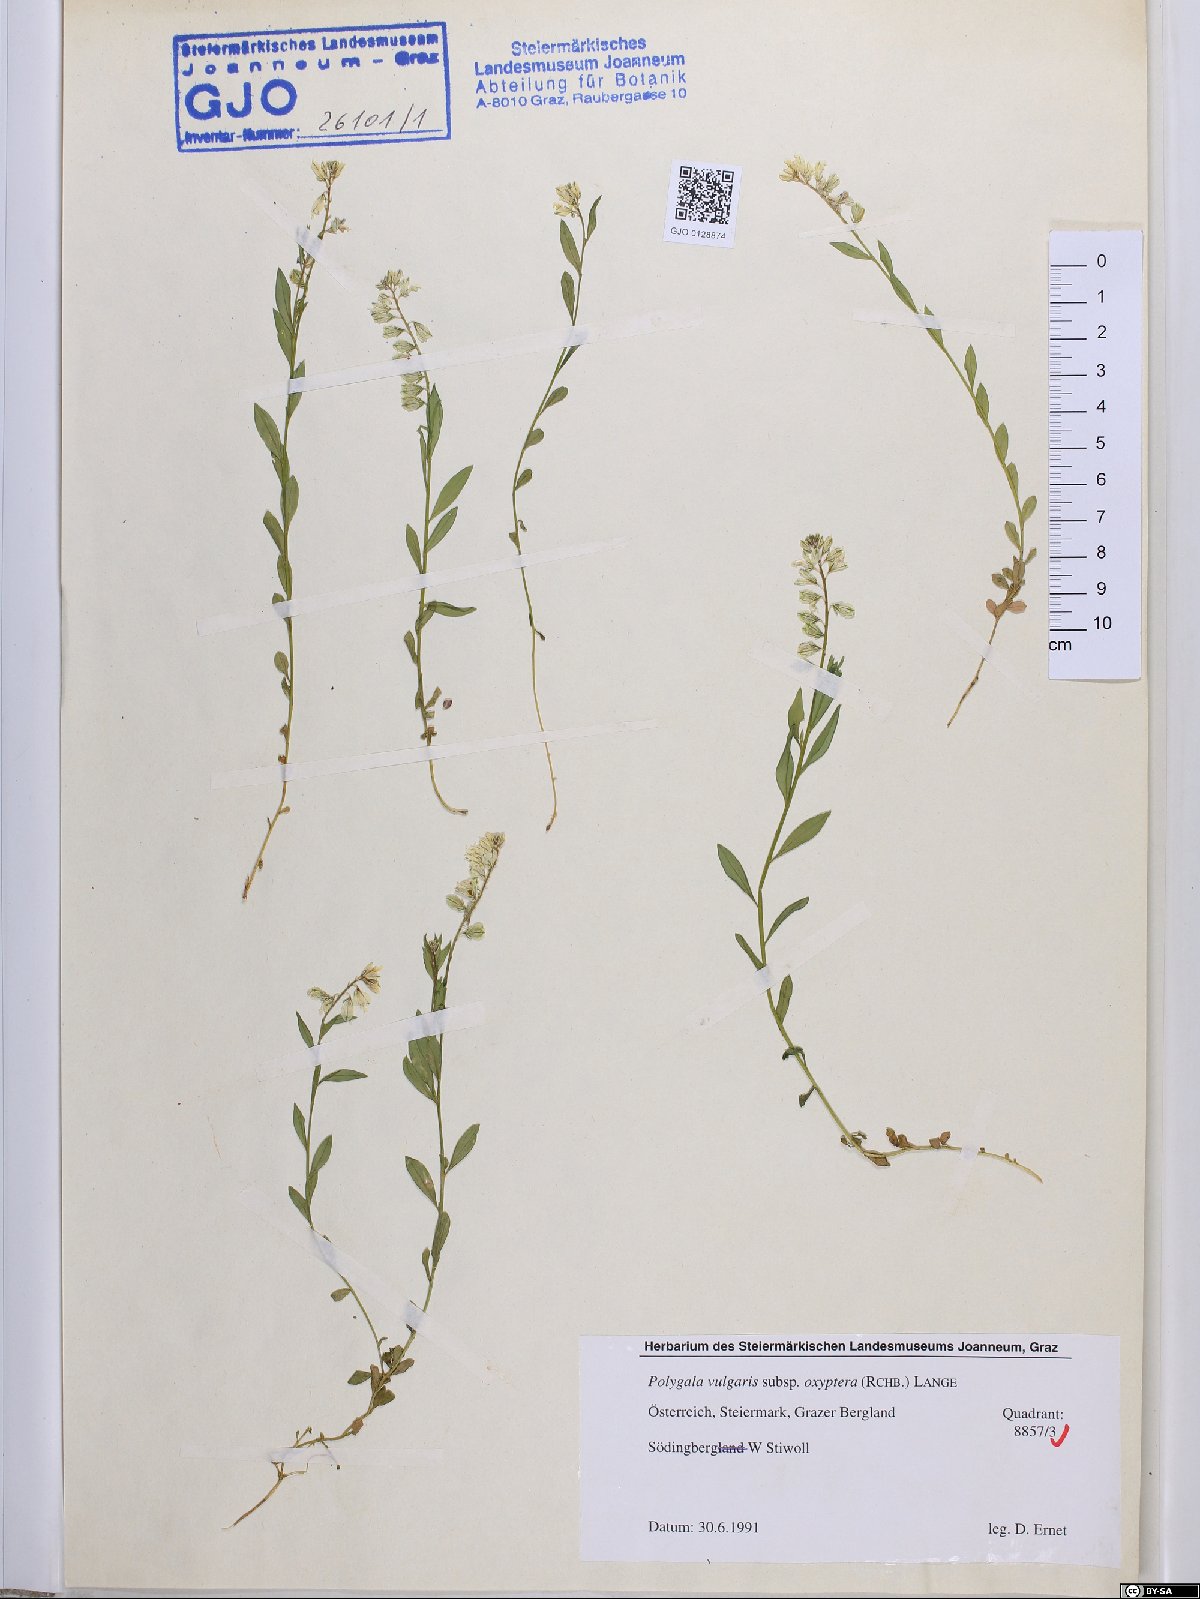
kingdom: Plantae
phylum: Tracheophyta
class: Magnoliopsida
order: Fabales
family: Polygalaceae
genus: Polygala
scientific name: Polygala vulgaris
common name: Common milkwort
